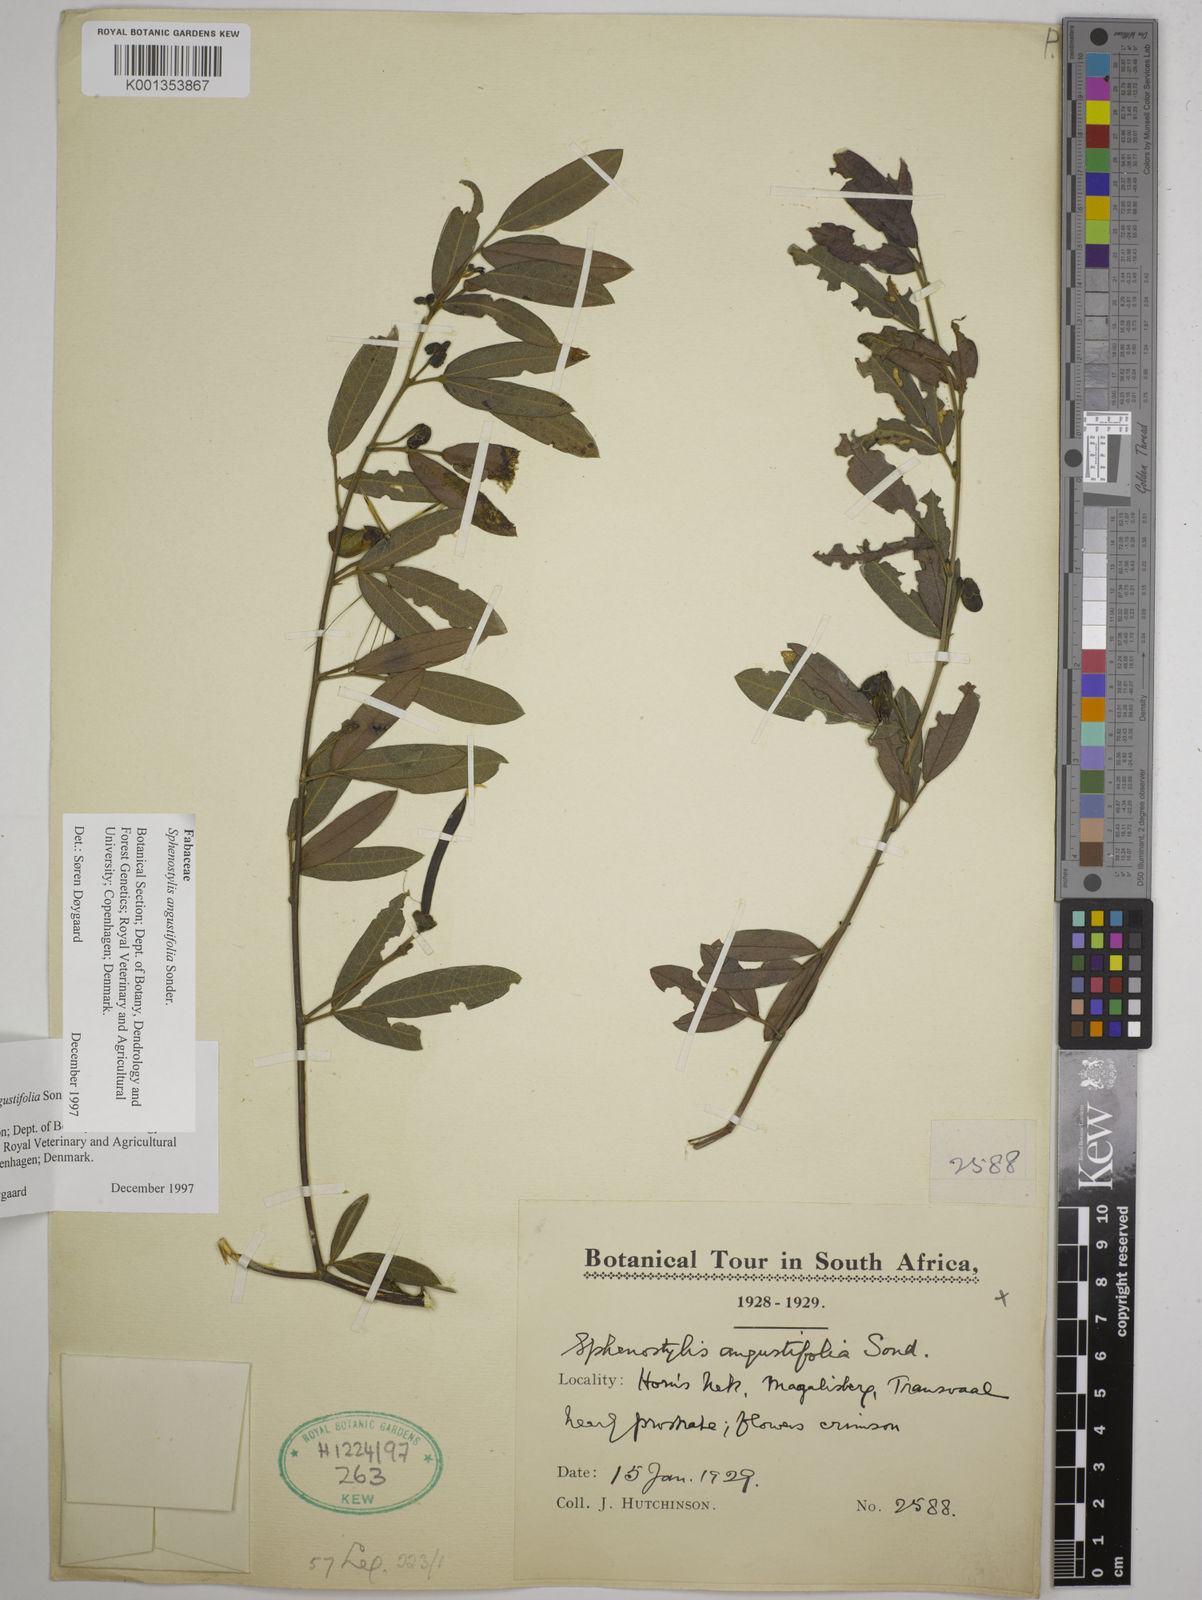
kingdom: Plantae
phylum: Tracheophyta
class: Magnoliopsida
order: Fabales
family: Fabaceae
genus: Sphenostylis
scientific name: Sphenostylis angustifolia
